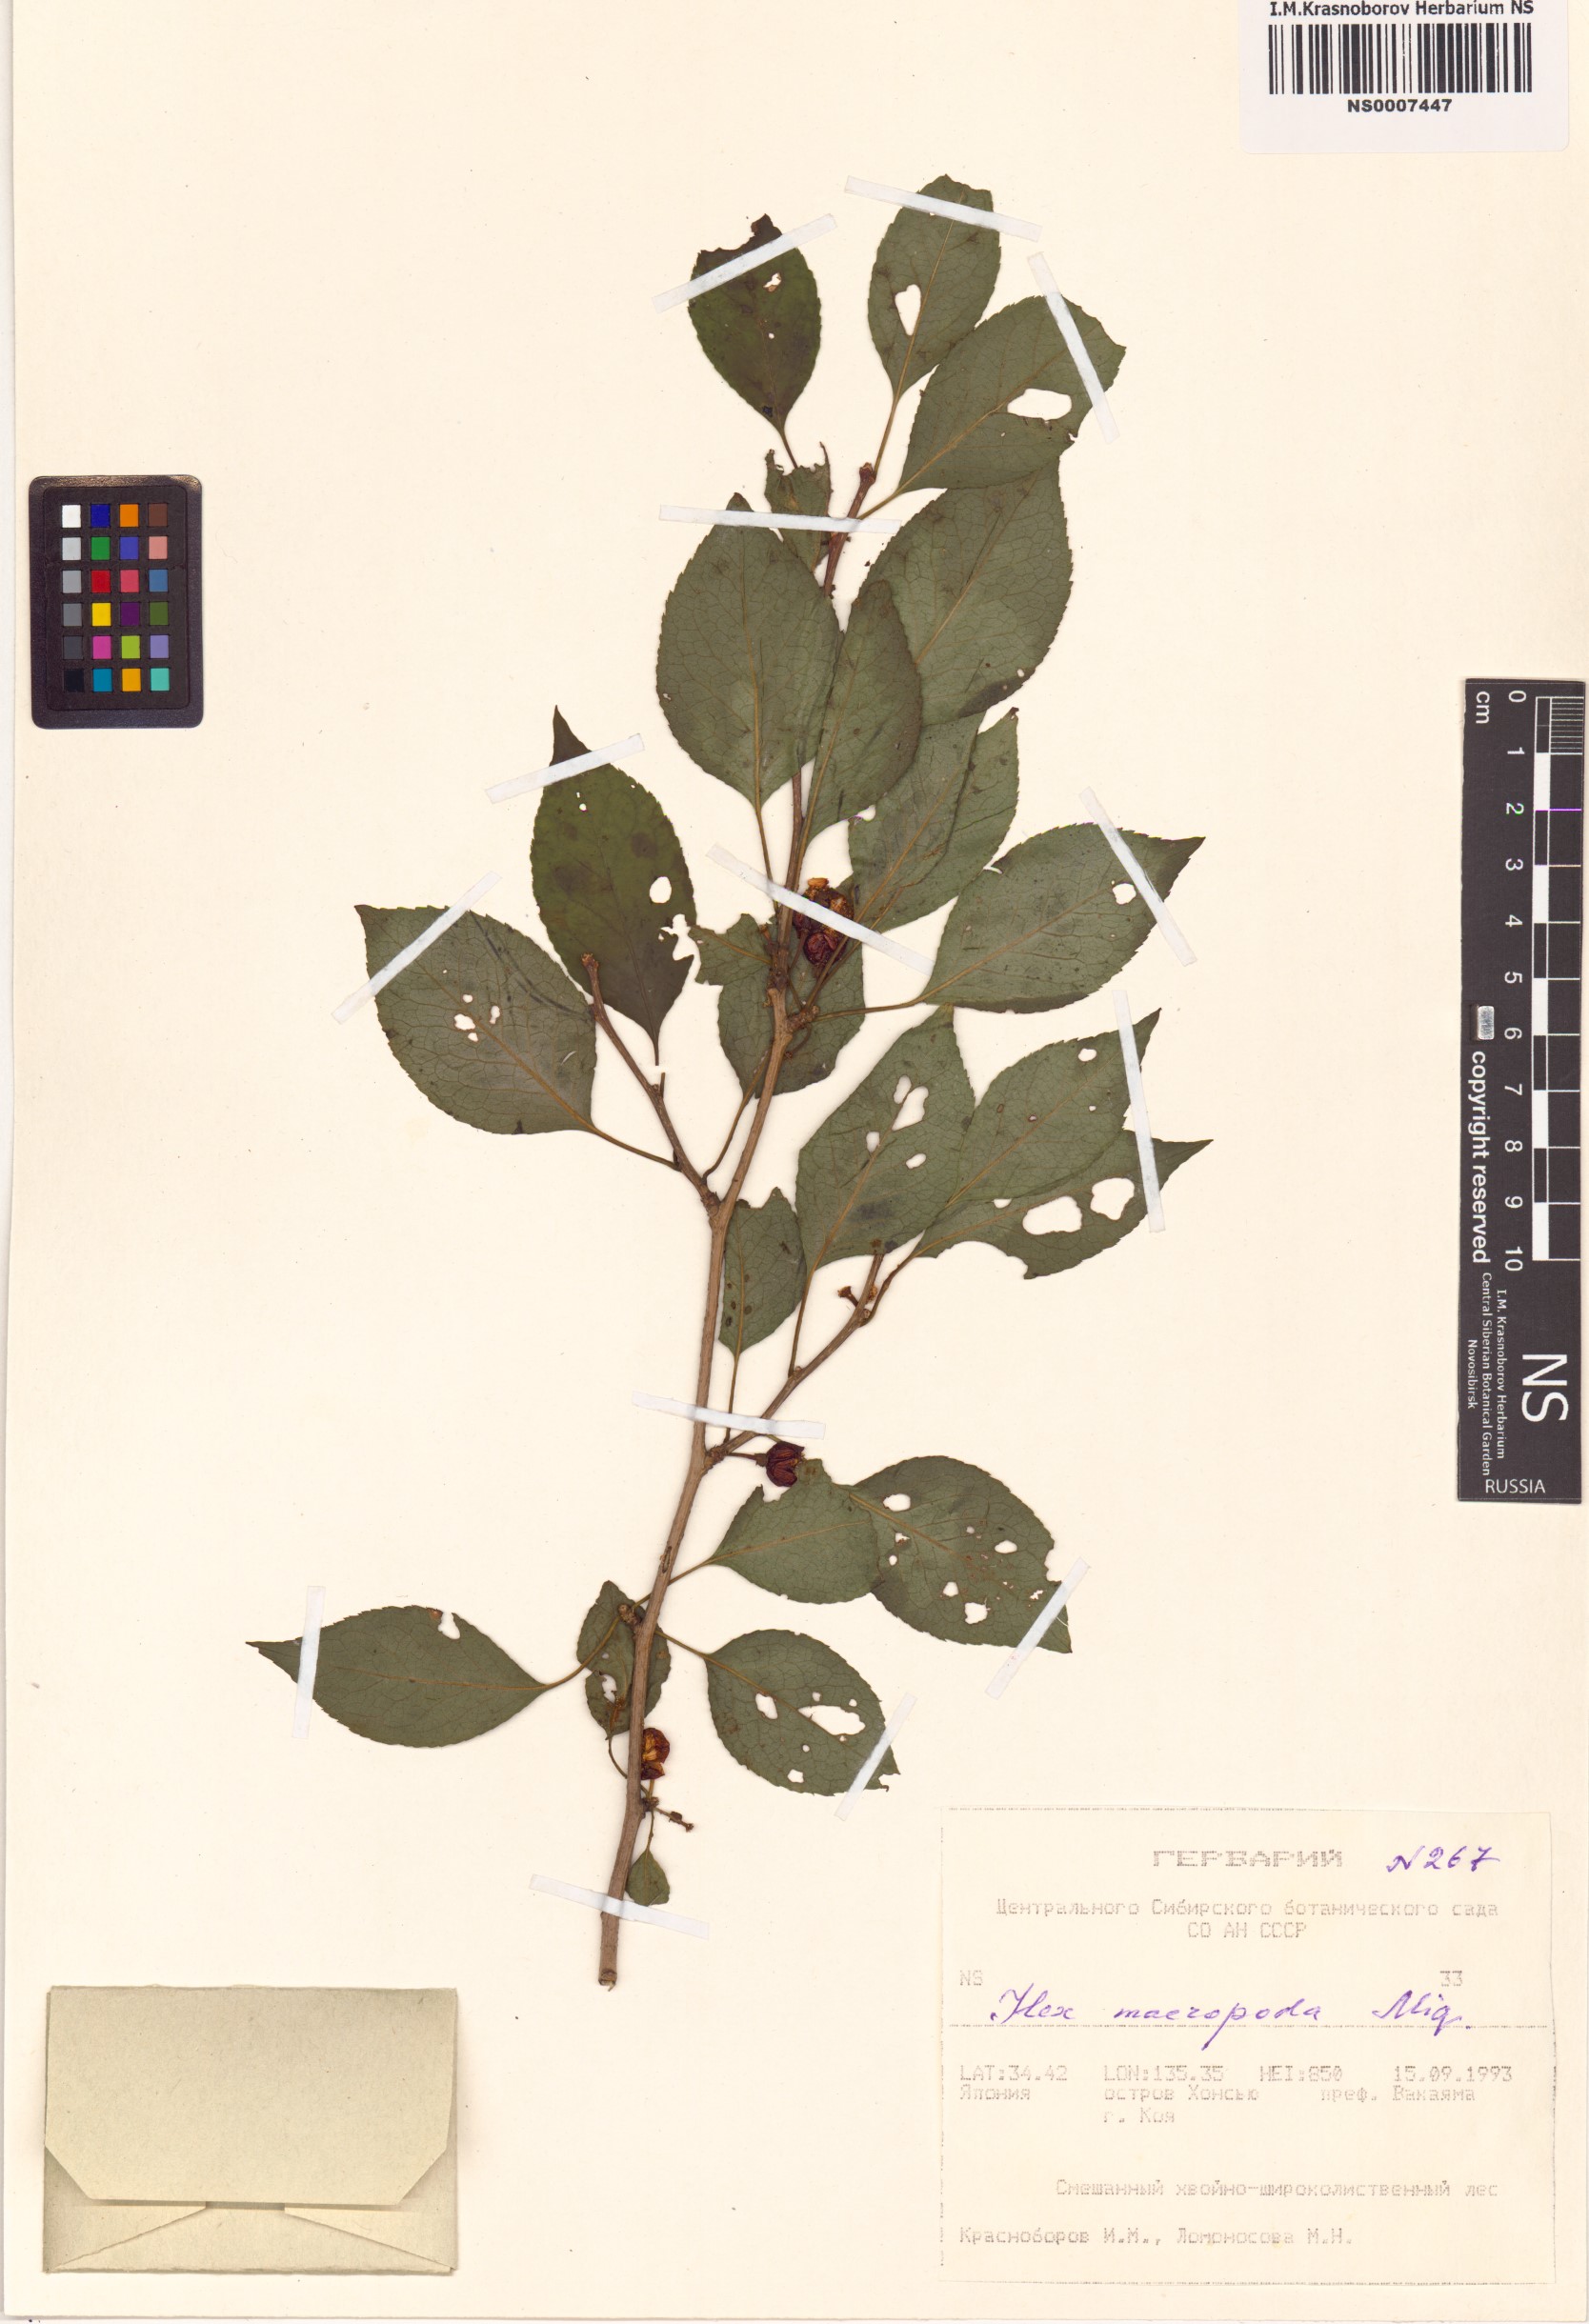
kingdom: Plantae
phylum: Tracheophyta
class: Magnoliopsida
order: Aquifoliales
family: Aquifoliaceae
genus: Ilex
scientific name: Ilex macropoda
